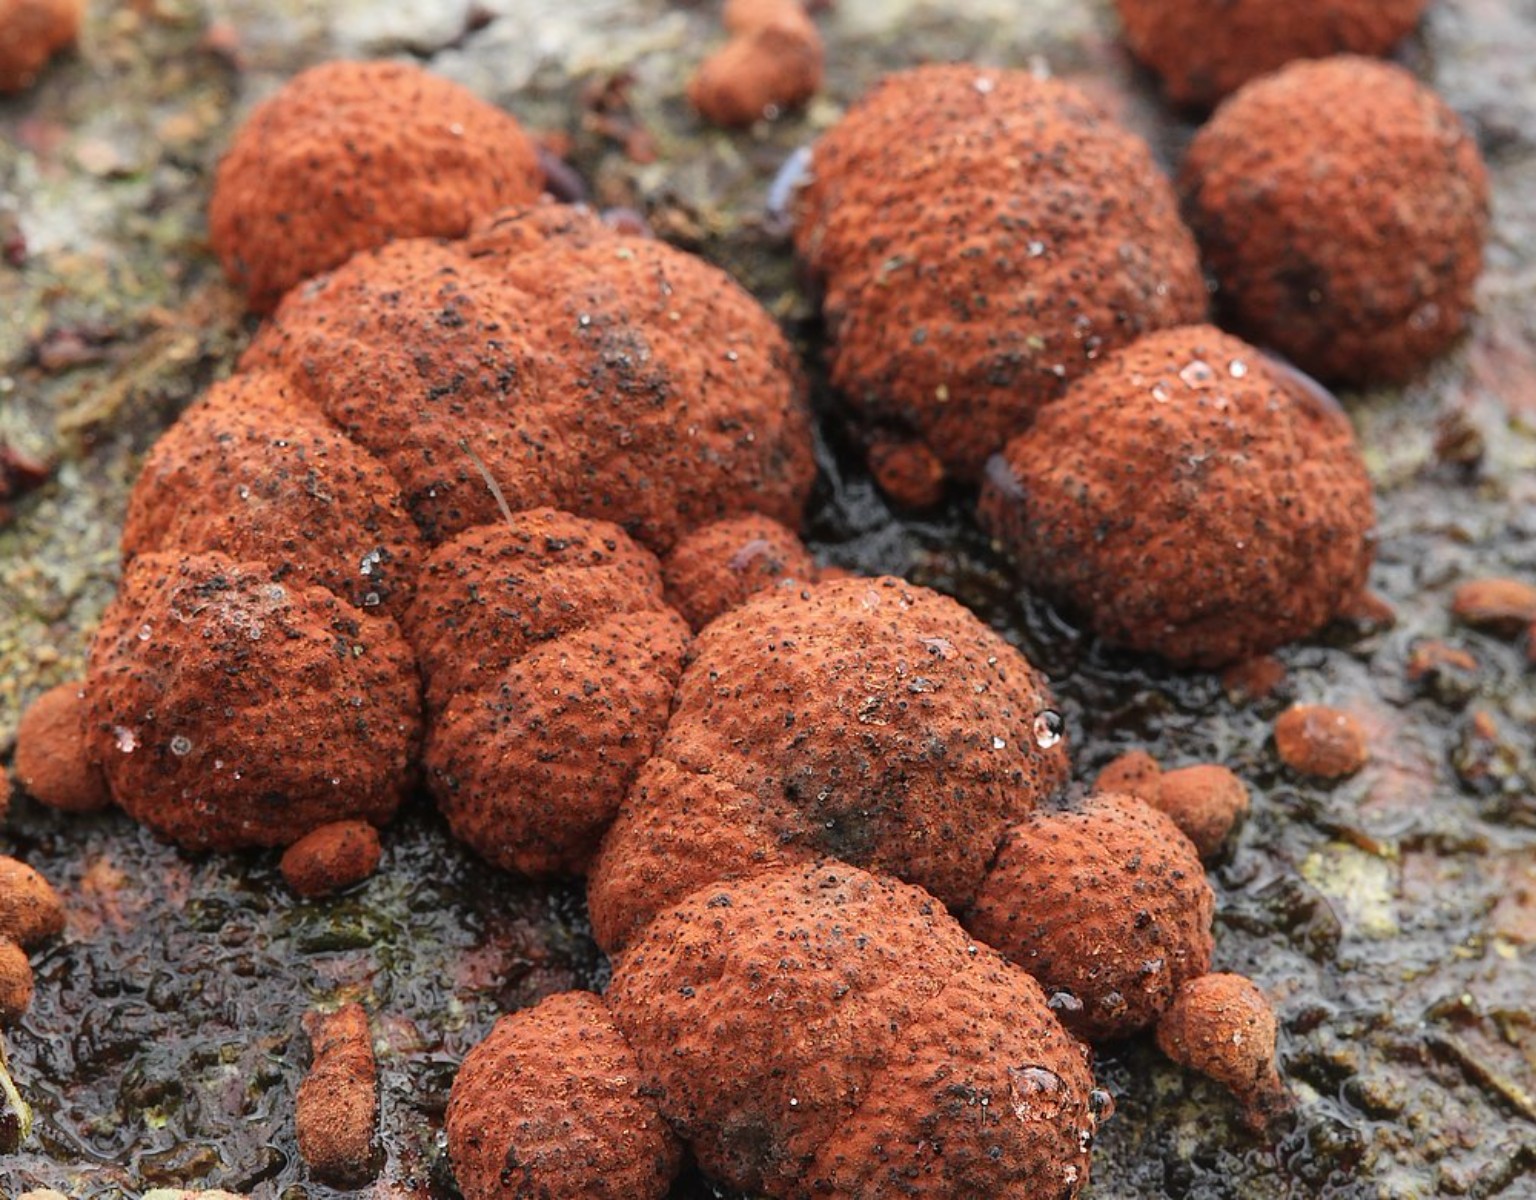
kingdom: Fungi
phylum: Ascomycota
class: Sordariomycetes
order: Xylariales
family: Hypoxylaceae
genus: Hypoxylon
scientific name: Hypoxylon fragiforme
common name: kuljordbær
